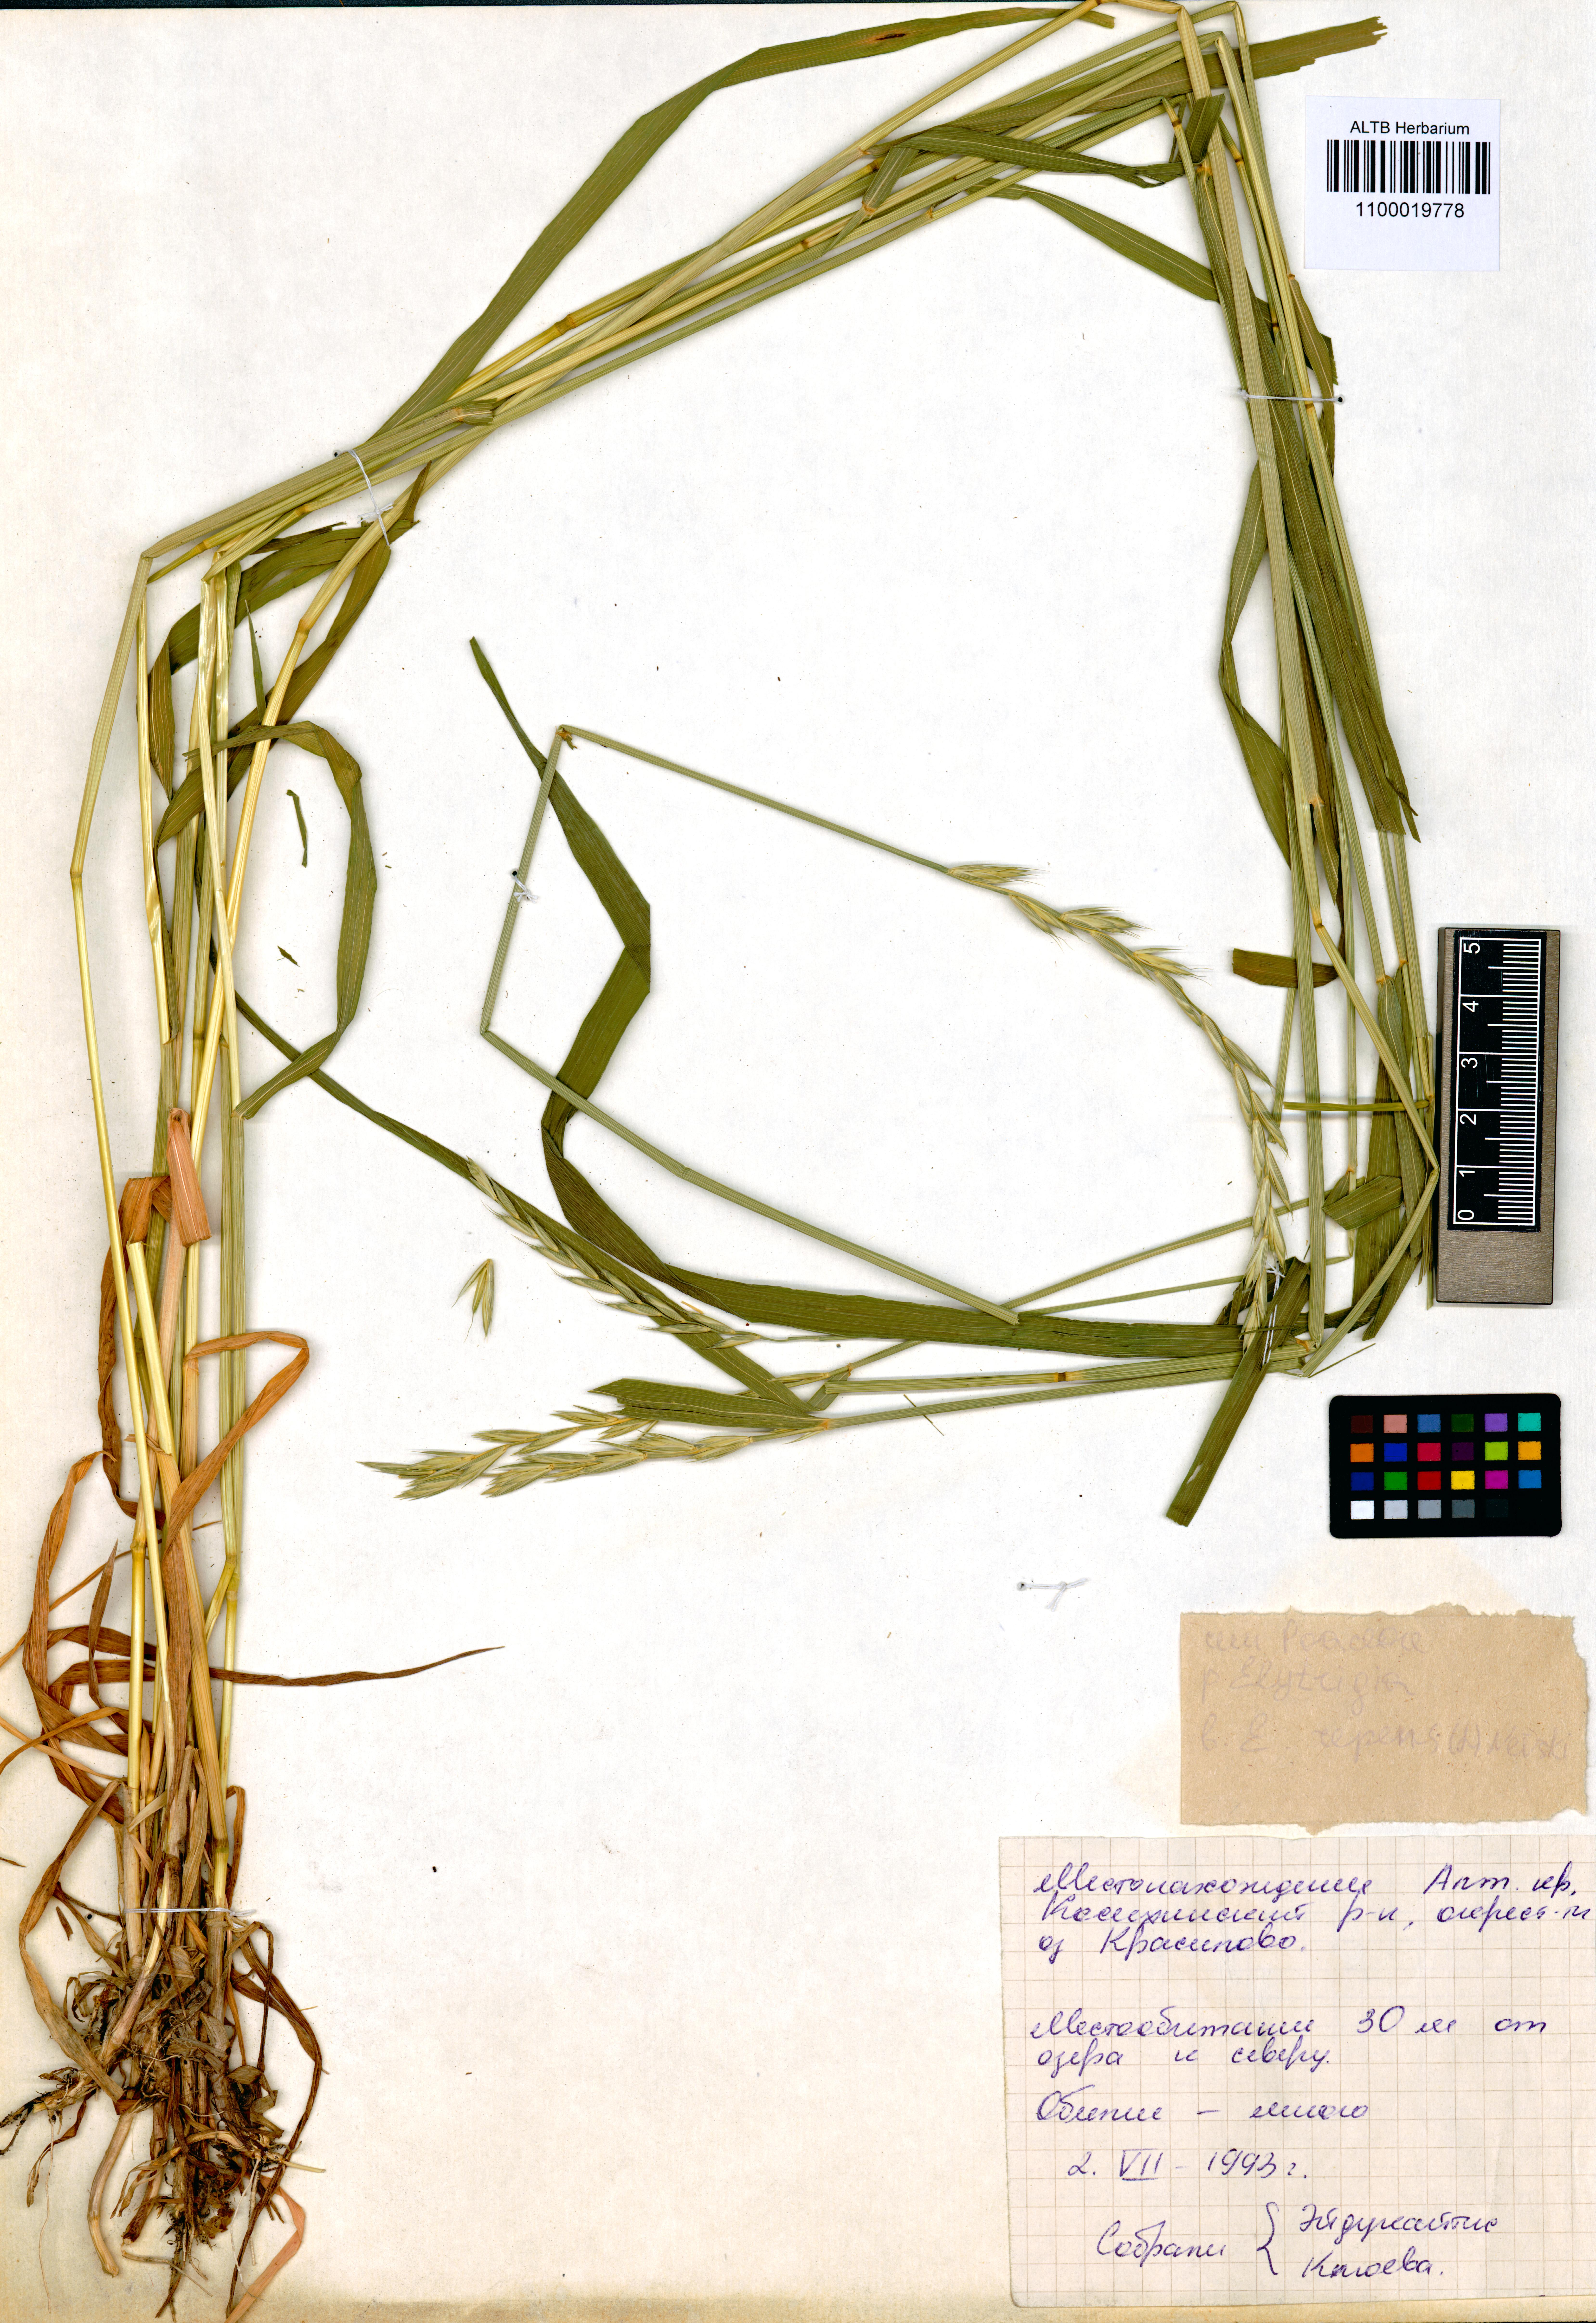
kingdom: Plantae
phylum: Tracheophyta
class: Liliopsida
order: Poales
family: Poaceae
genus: Elymus
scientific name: Elymus repens
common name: Quackgrass
